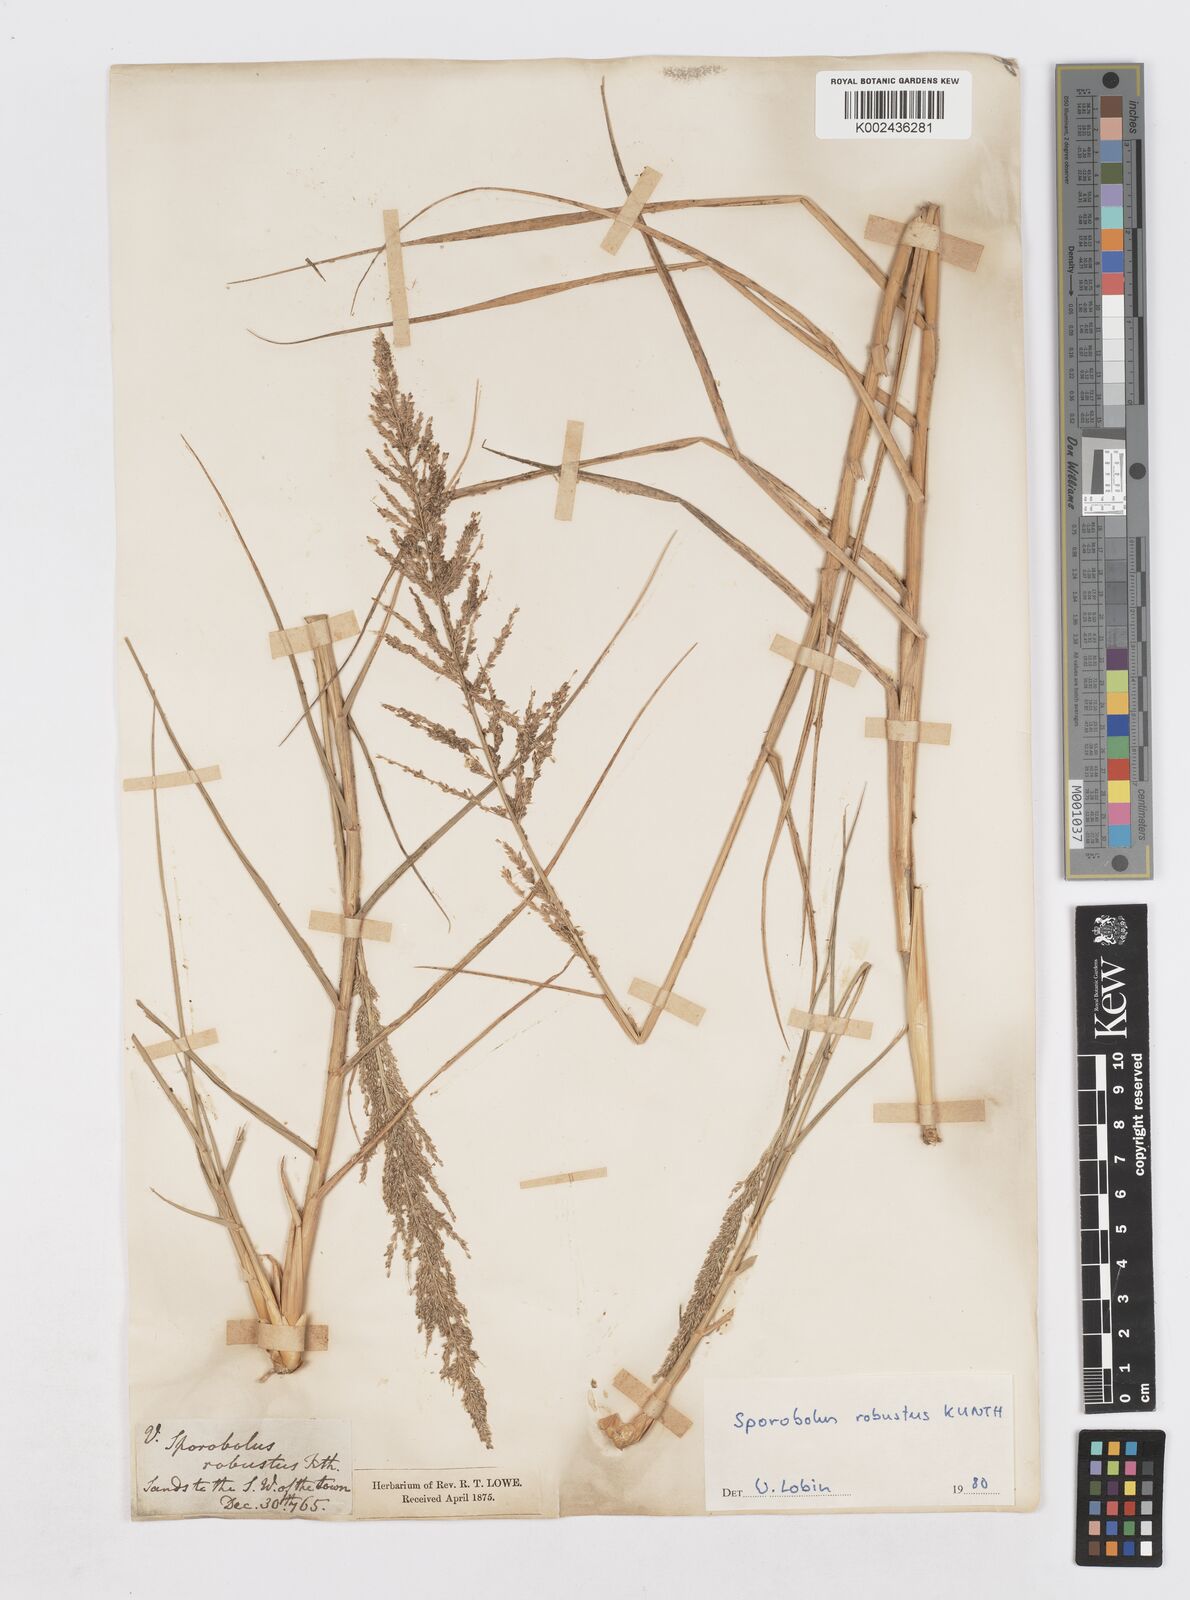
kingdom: Plantae
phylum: Tracheophyta
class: Liliopsida
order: Poales
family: Poaceae
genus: Sporobolus
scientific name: Sporobolus robustus
